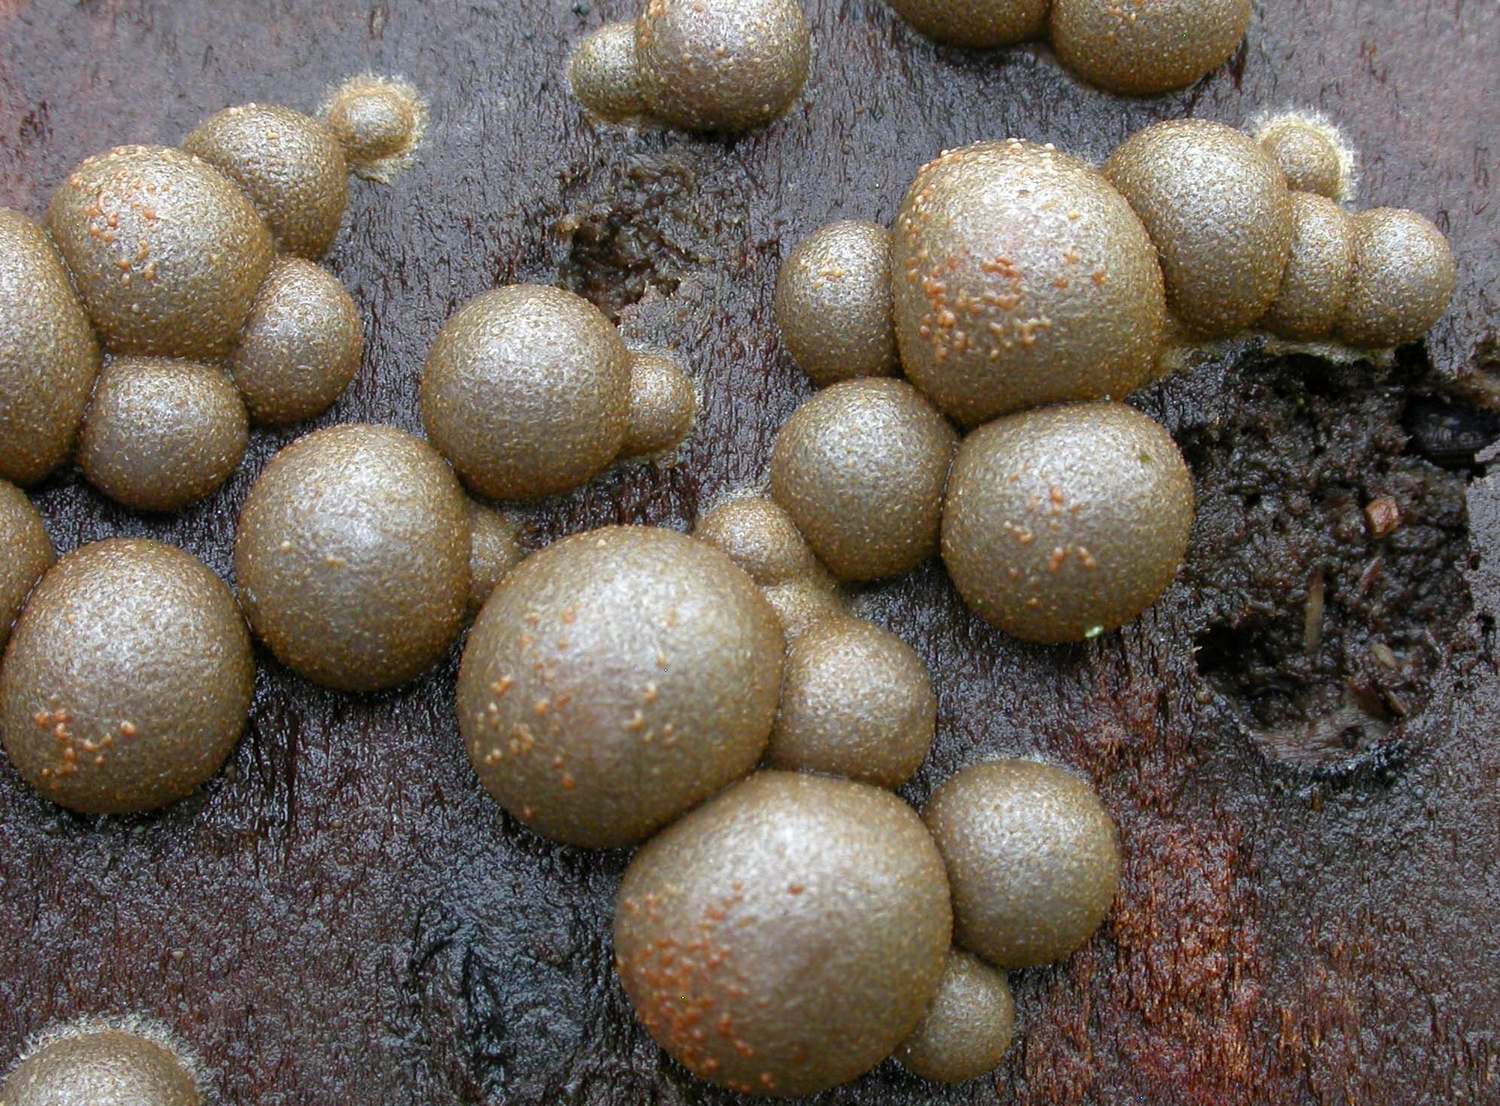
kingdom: Protozoa
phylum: Mycetozoa
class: Myxomycetes
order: Cribrariales
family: Tubiferaceae
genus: Lycogala
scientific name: Lycogala epidendrum
